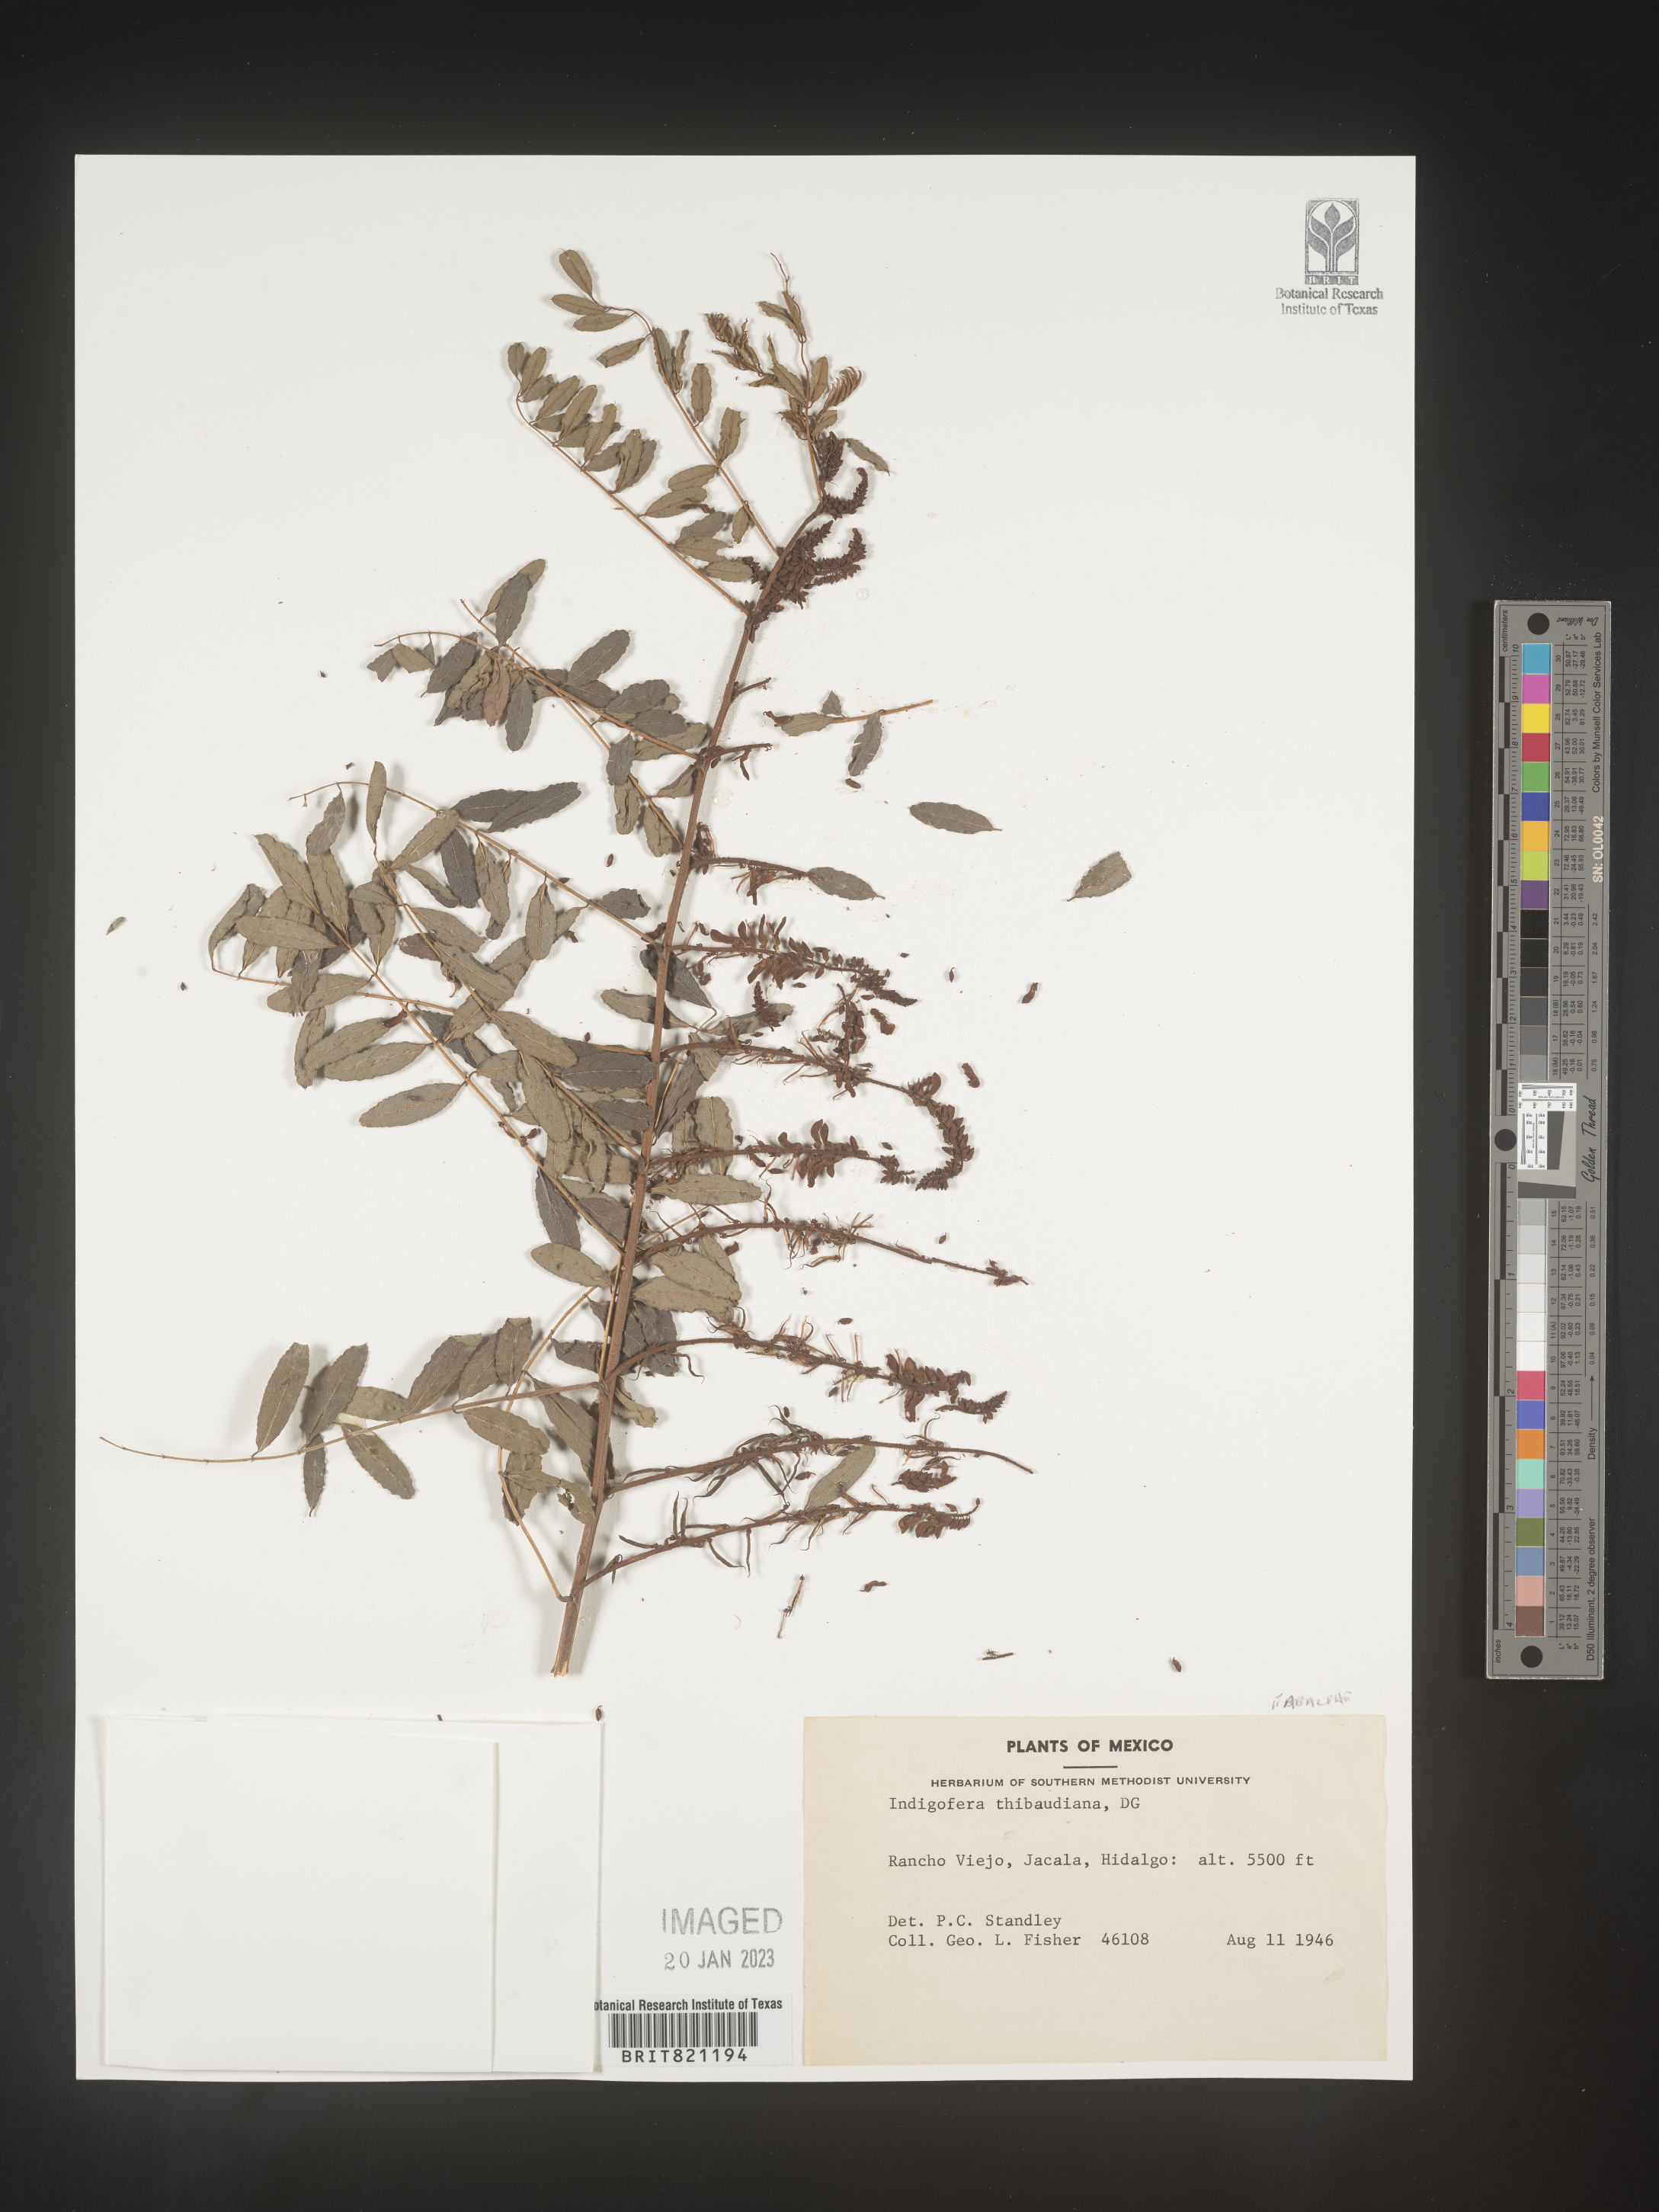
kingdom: Plantae
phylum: Tracheophyta
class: Magnoliopsida
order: Fabales
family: Fabaceae
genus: Indigofera
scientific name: Indigofera
